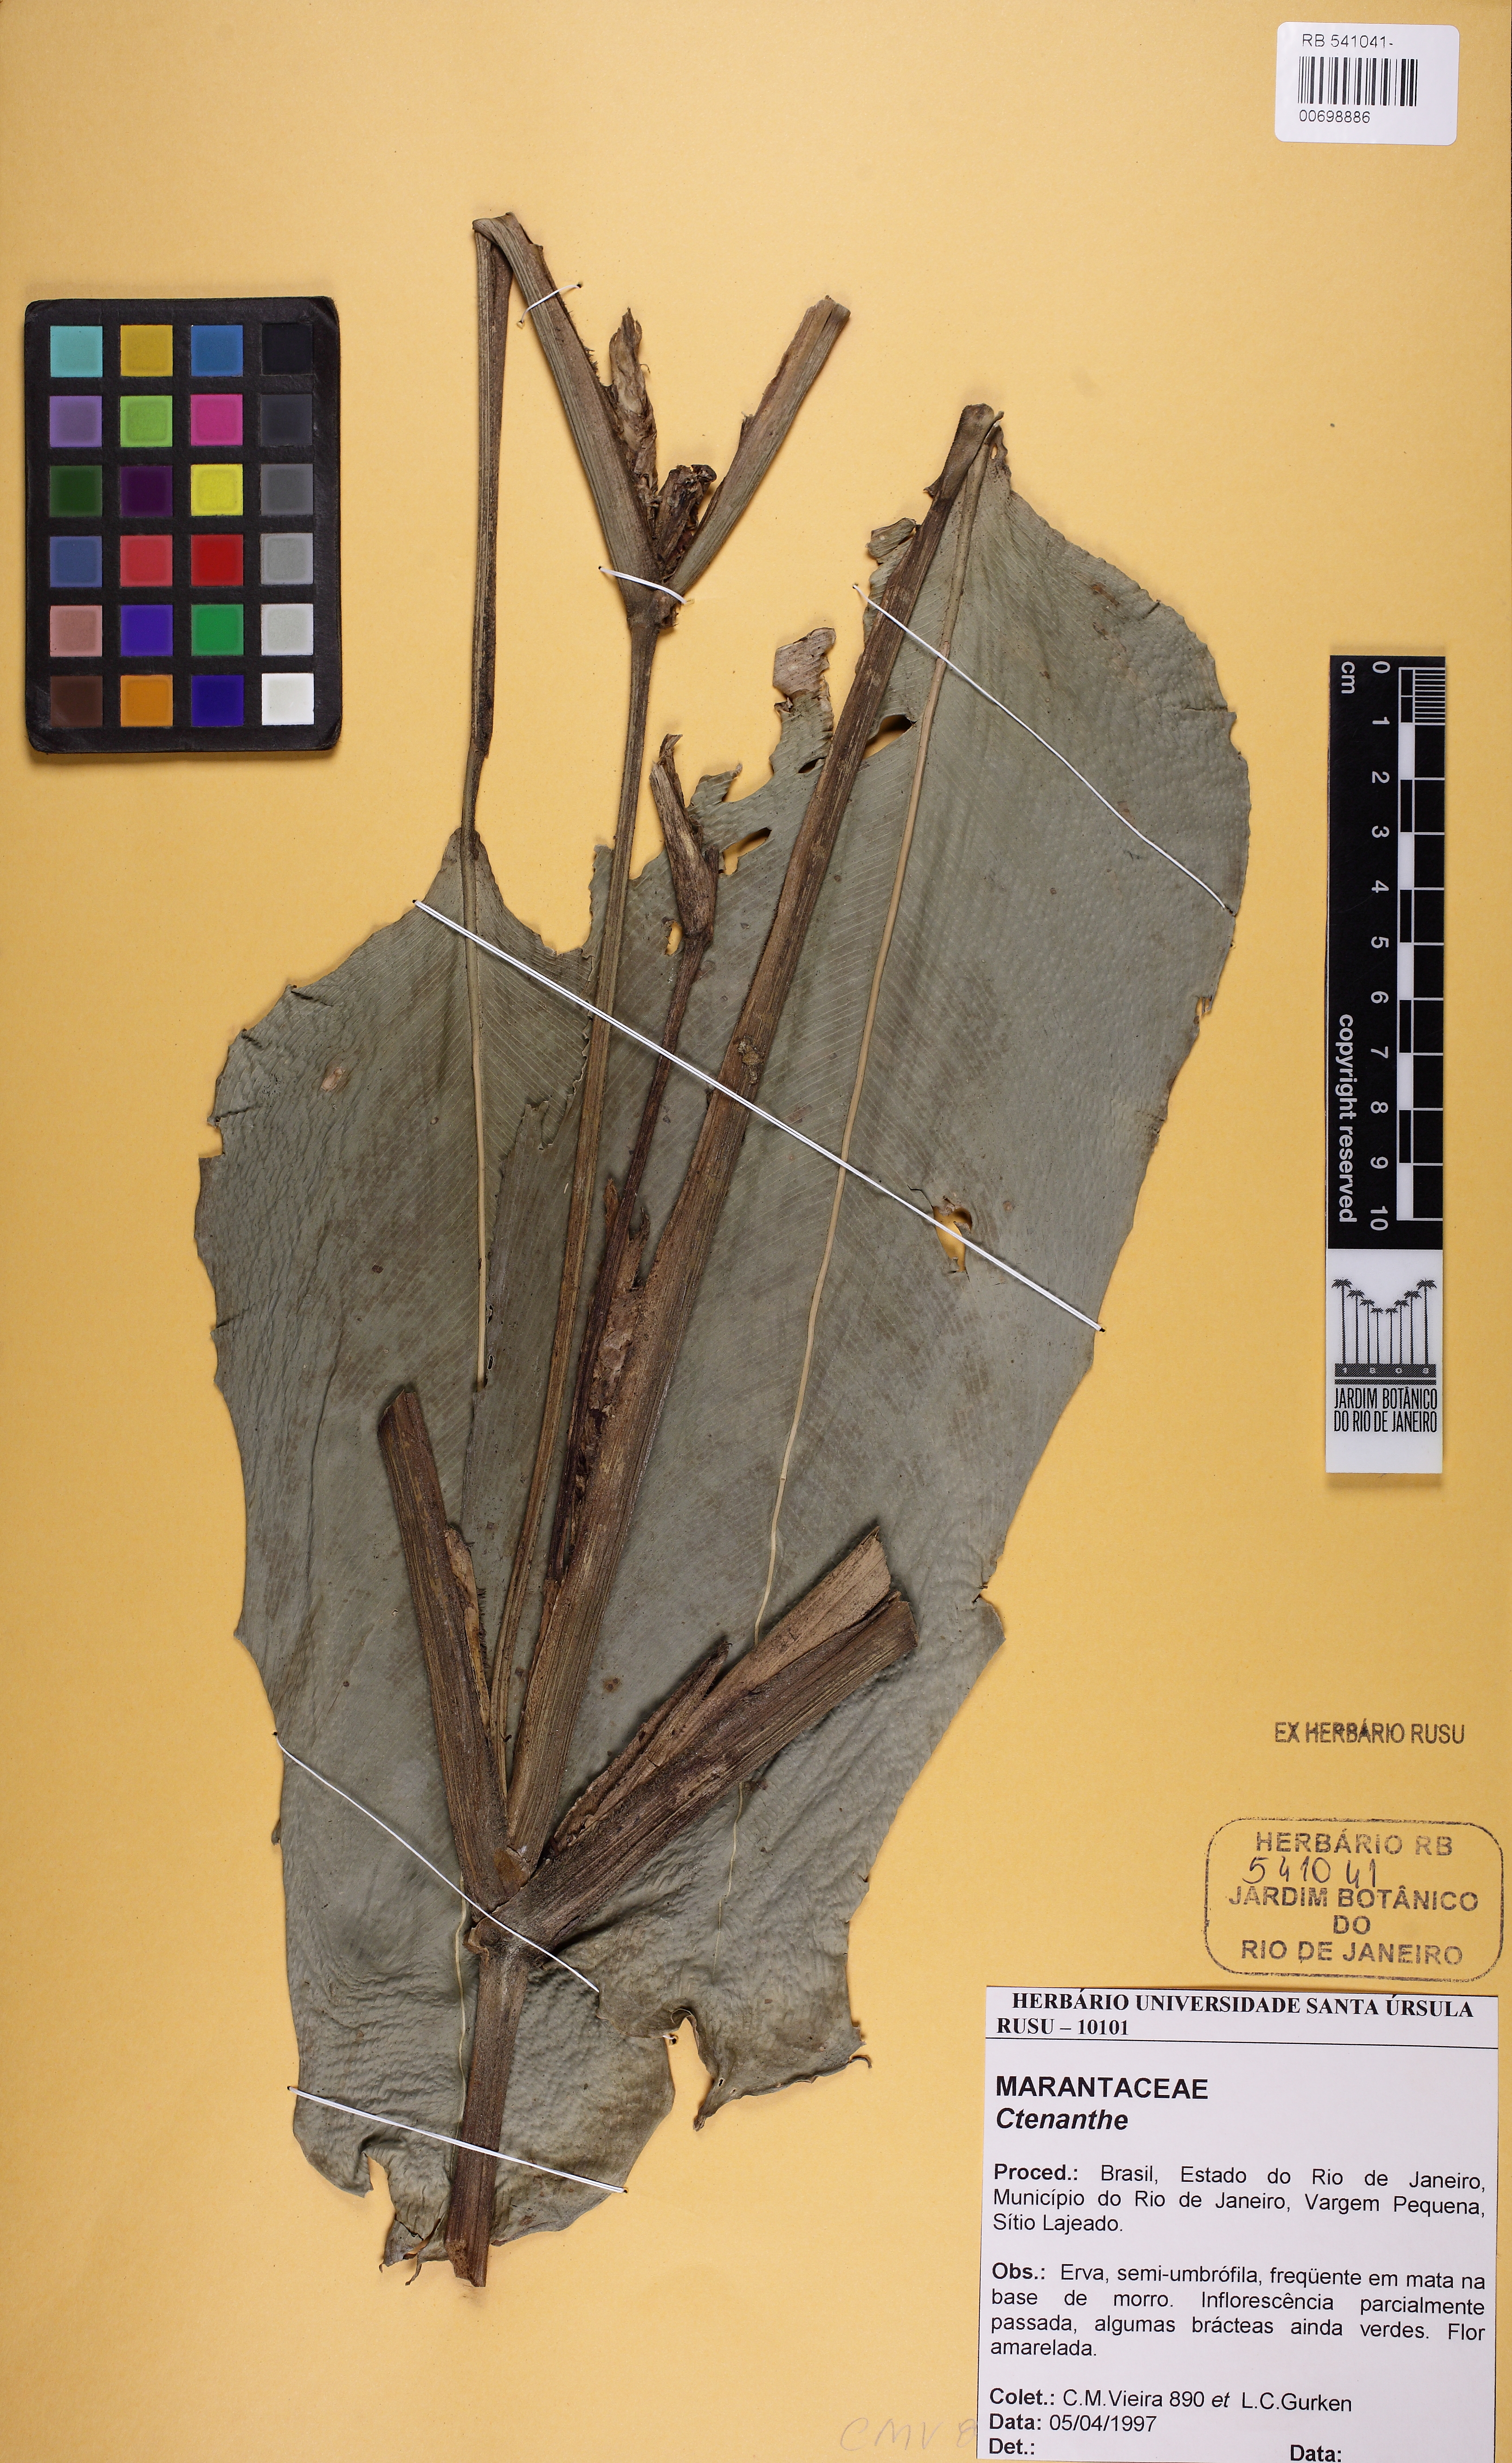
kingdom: Plantae
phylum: Tracheophyta
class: Liliopsida
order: Zingiberales
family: Marantaceae
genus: Ctenanthe
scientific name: Ctenanthe
